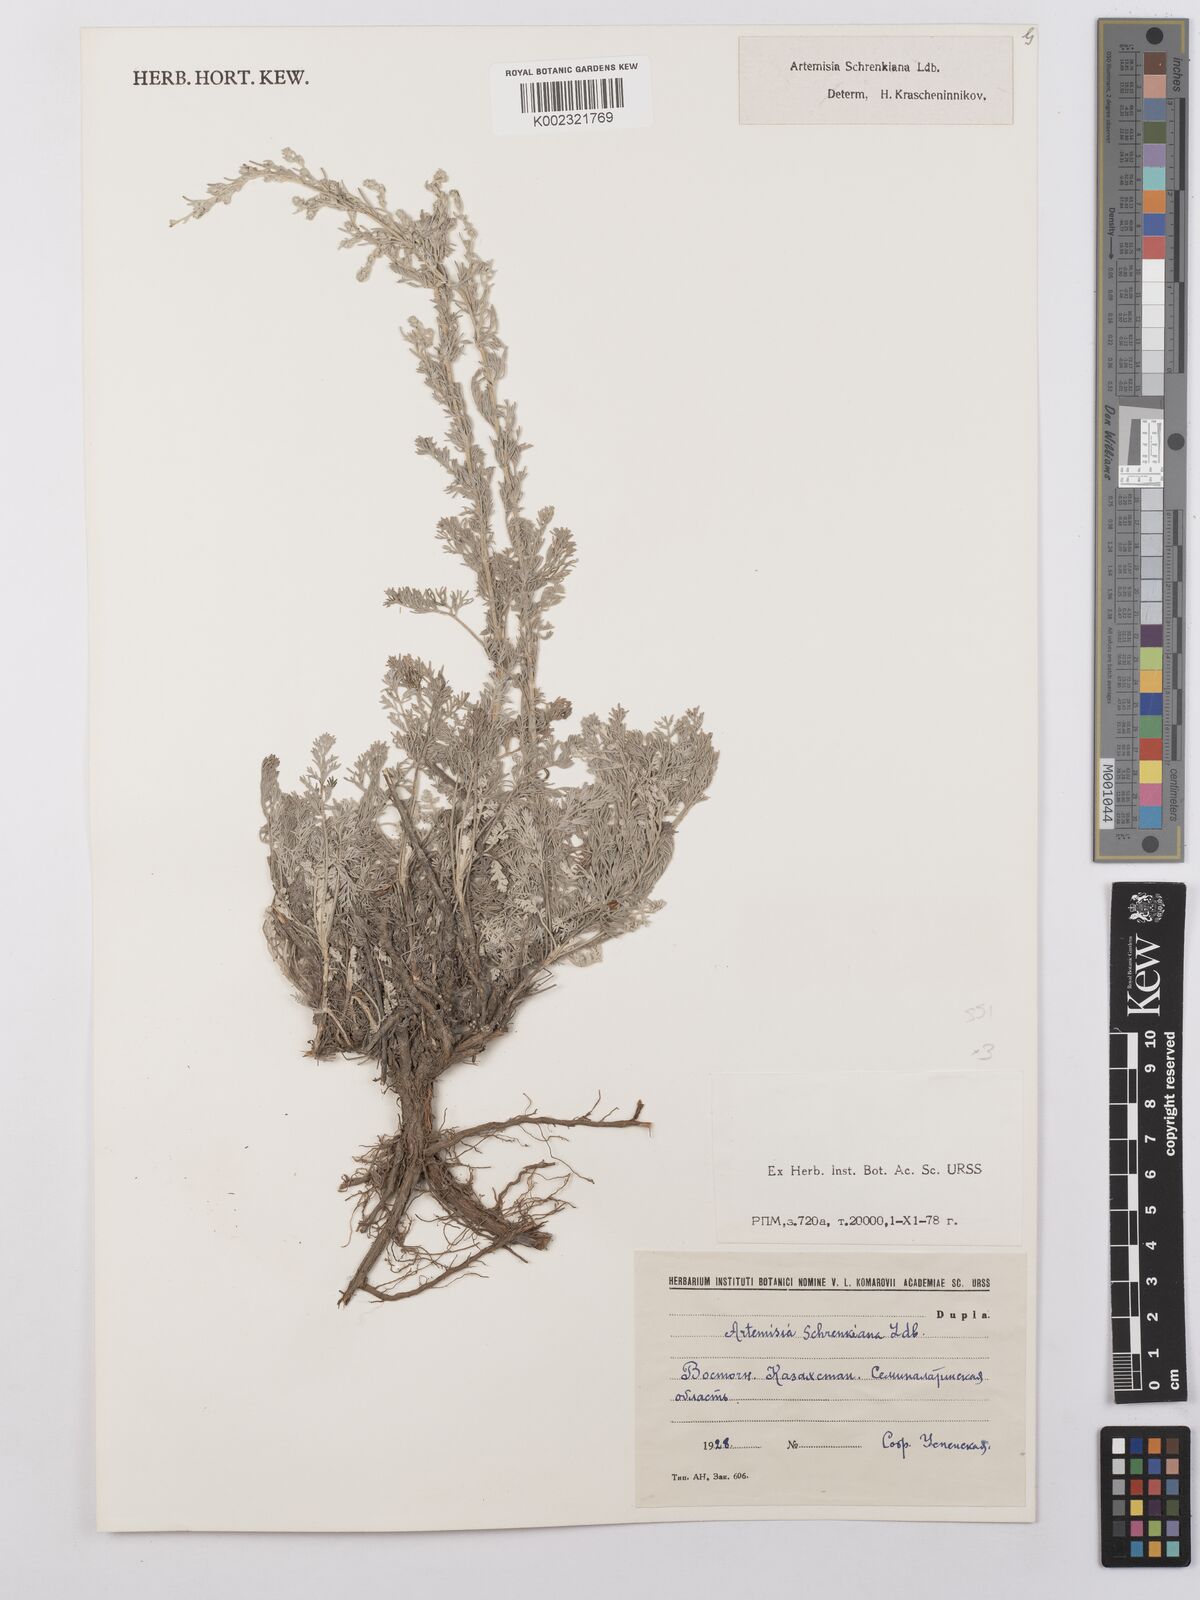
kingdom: Plantae
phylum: Tracheophyta
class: Magnoliopsida
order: Asterales
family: Asteraceae
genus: Artemisia
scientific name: Artemisia schrenkiana
